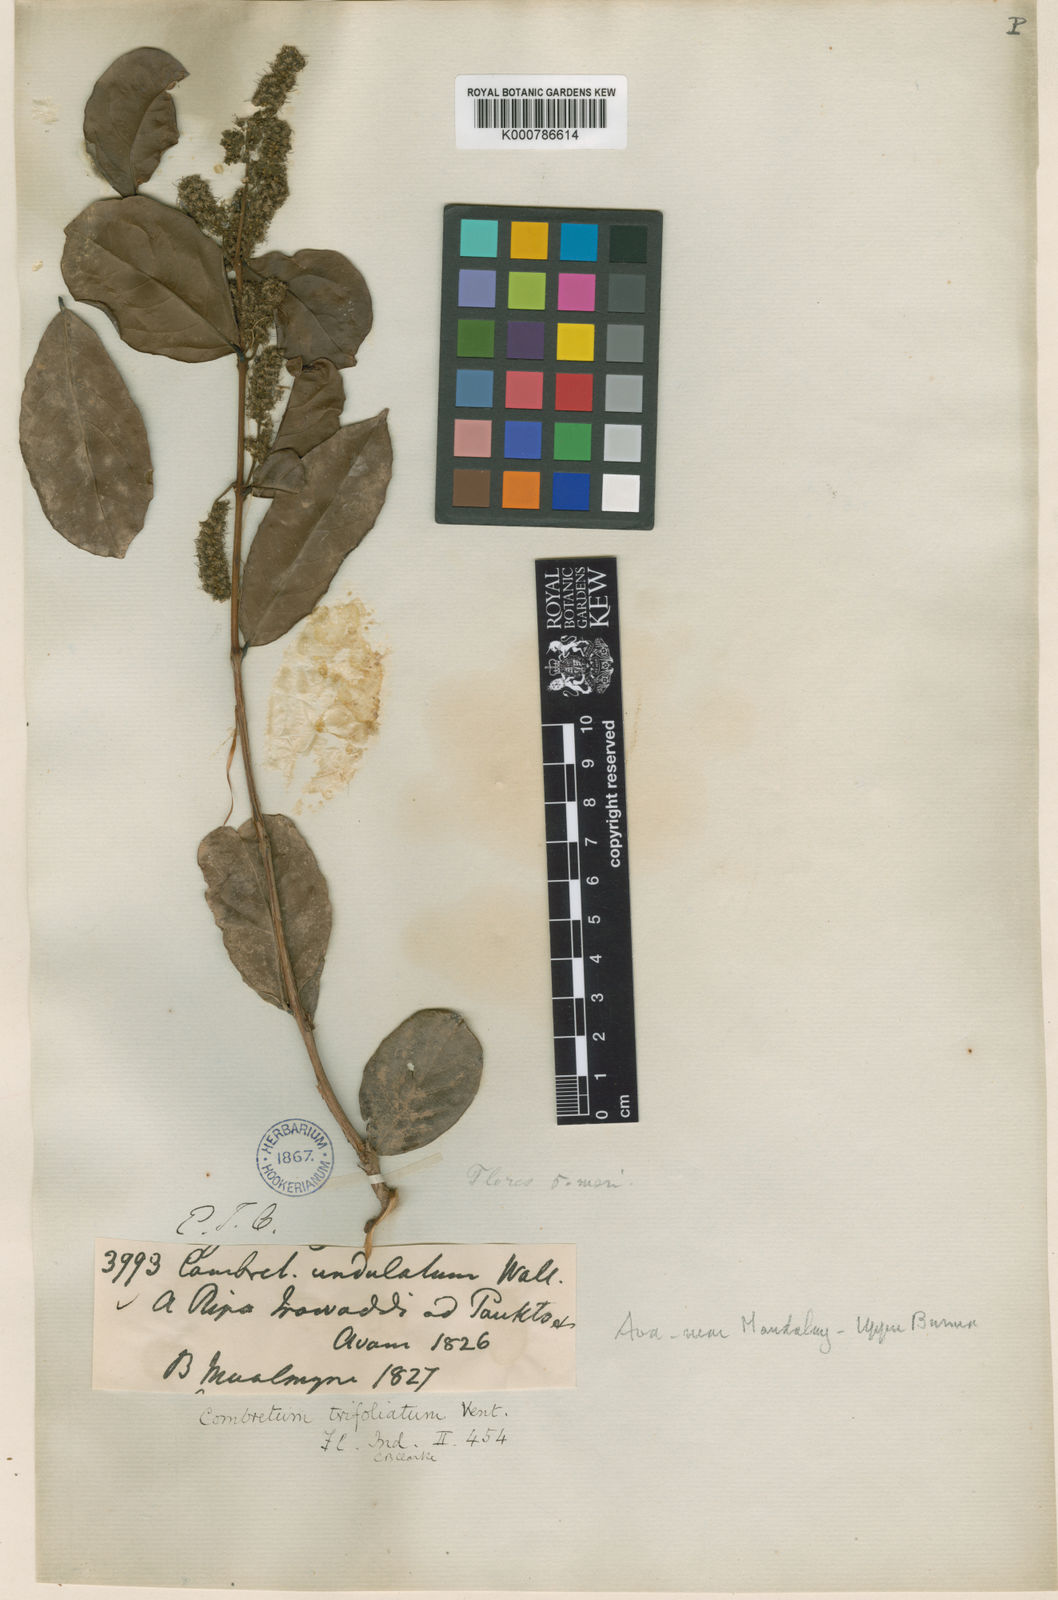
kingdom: Plantae
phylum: Tracheophyta
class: Magnoliopsida
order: Myrtales
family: Combretaceae
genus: Combretum
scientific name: Combretum trifoliatum
